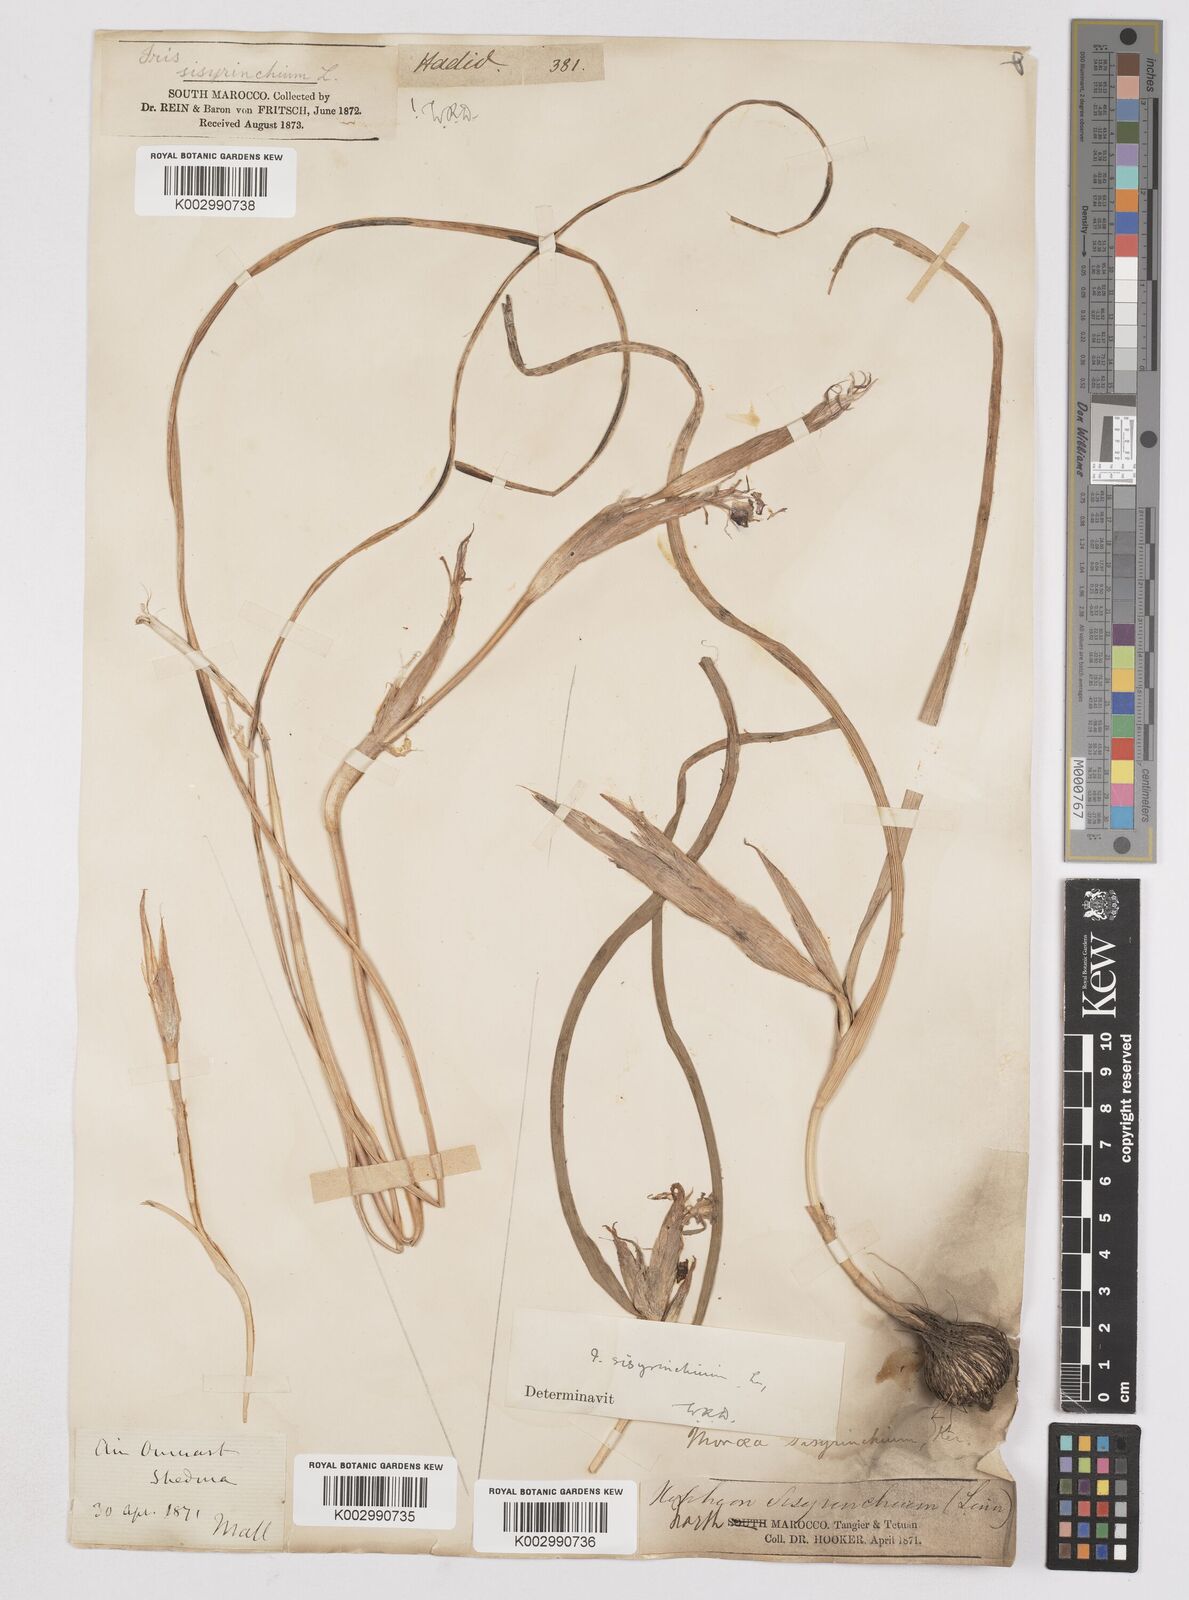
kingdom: Plantae
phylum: Tracheophyta
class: Liliopsida
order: Asparagales
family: Iridaceae
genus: Moraea
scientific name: Moraea sisyrinchium
